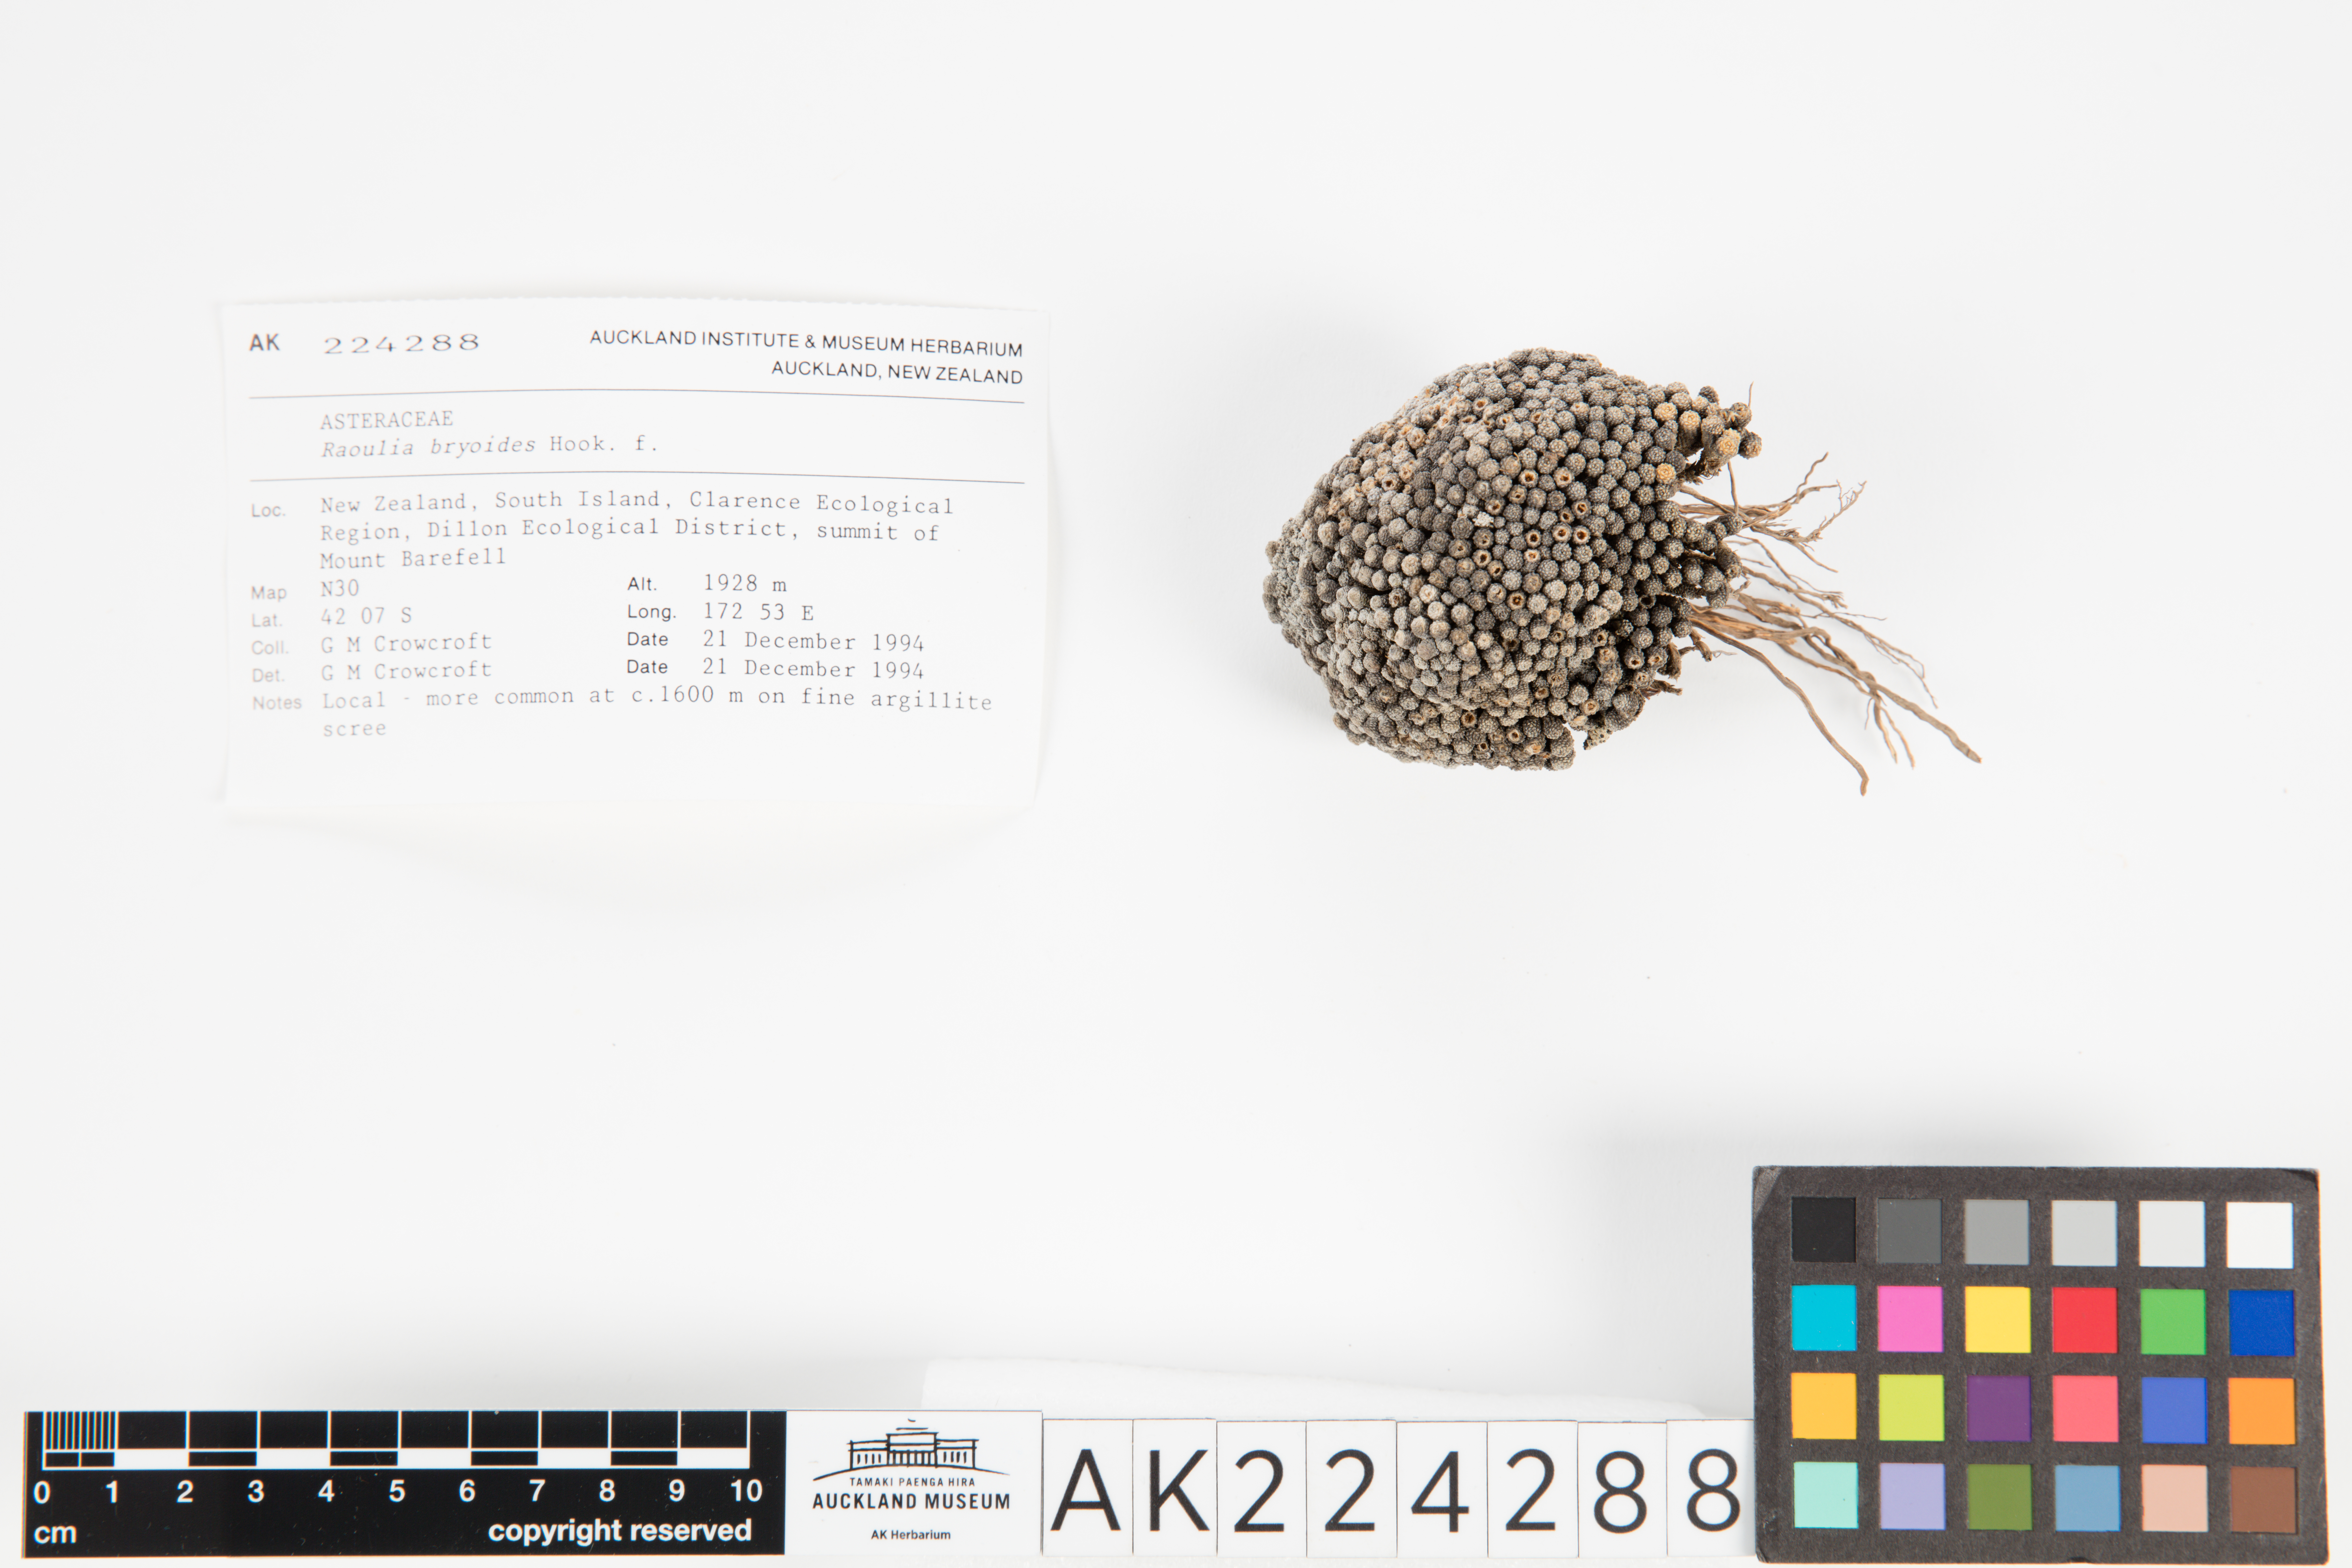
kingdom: Plantae
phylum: Tracheophyta
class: Magnoliopsida
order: Asterales
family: Asteraceae
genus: Raoulia
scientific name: Raoulia bryoides
